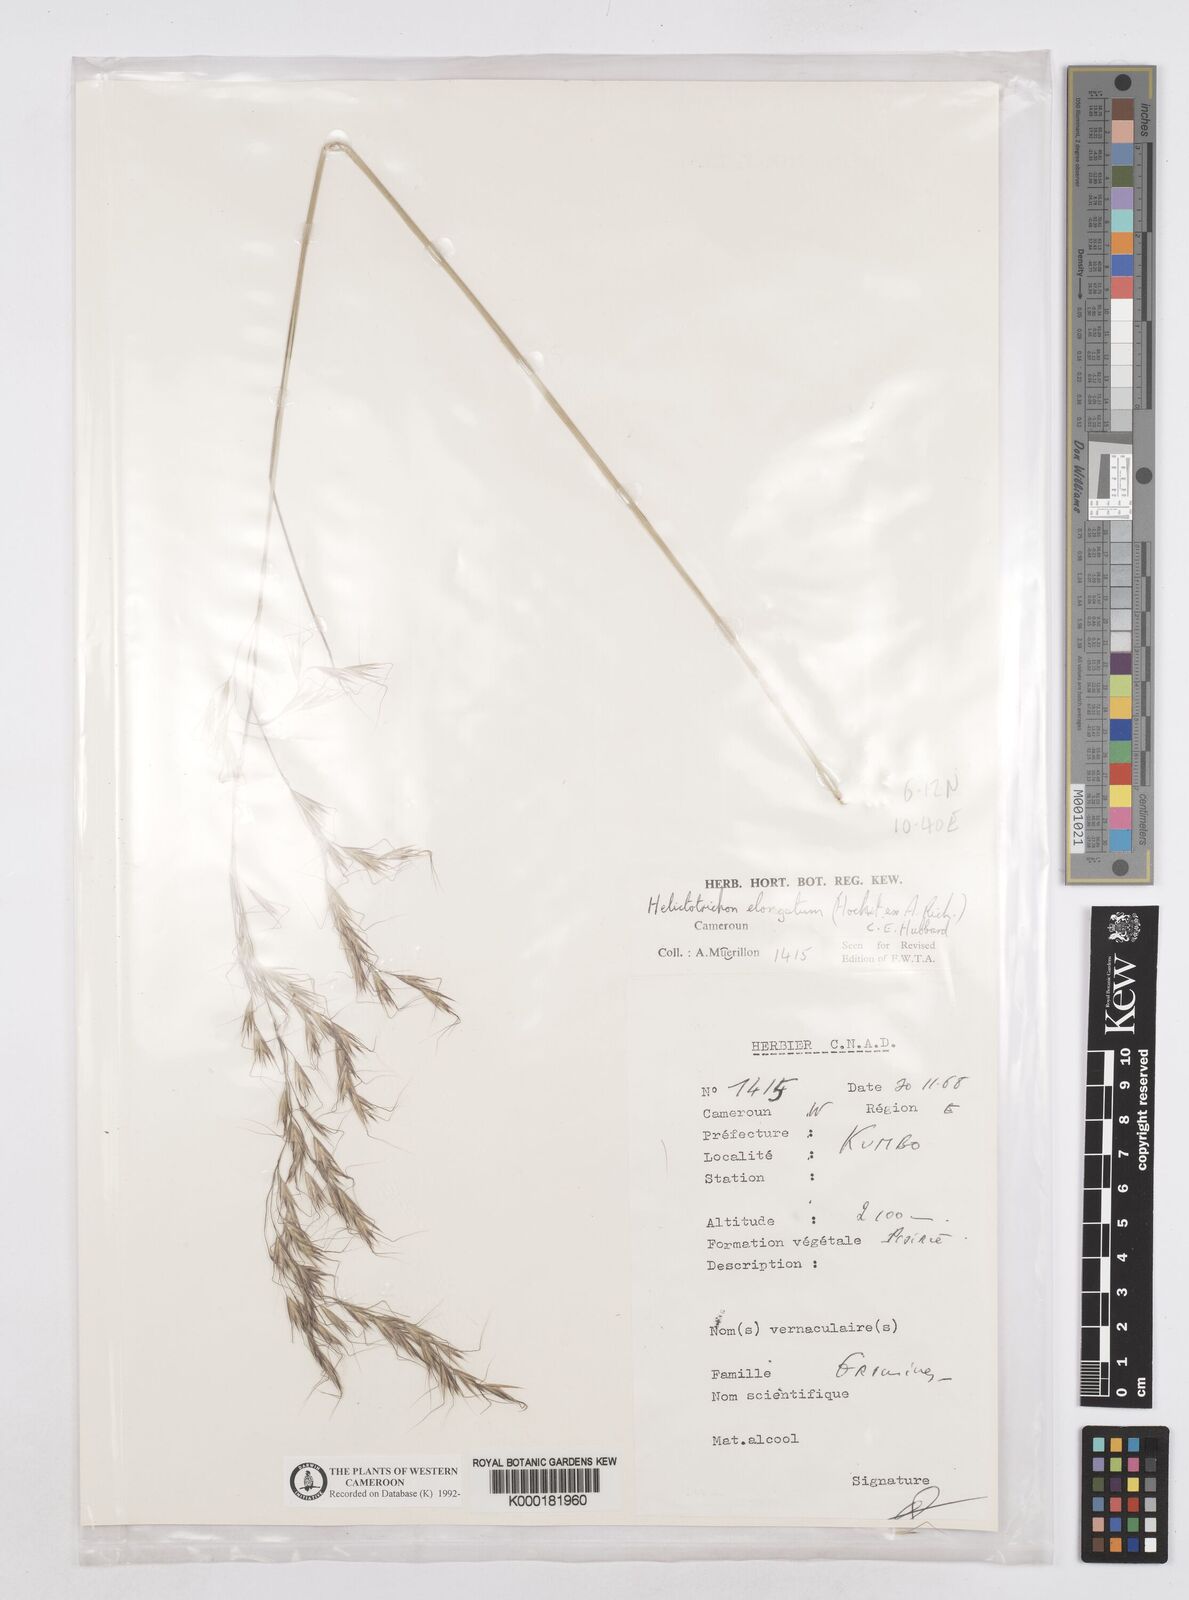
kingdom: Plantae
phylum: Tracheophyta
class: Liliopsida
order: Poales
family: Poaceae
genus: Trisetopsis
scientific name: Trisetopsis elongata
